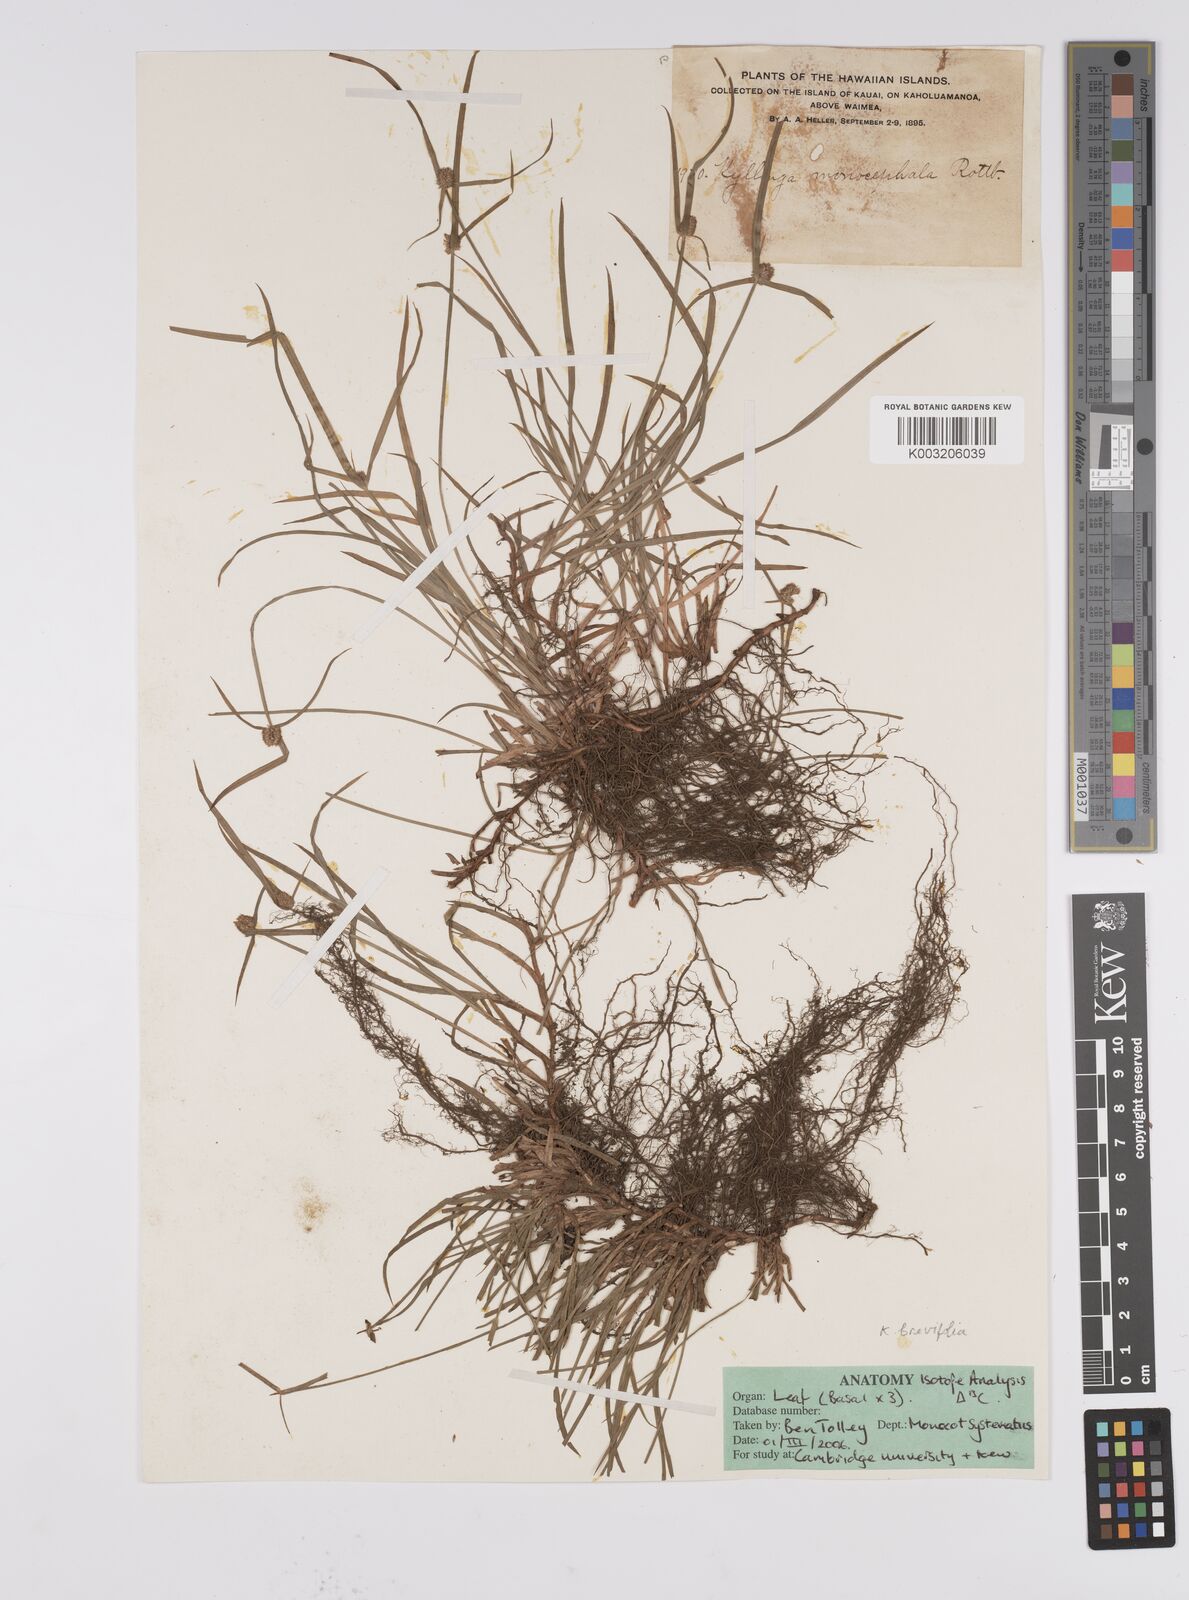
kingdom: Plantae
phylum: Tracheophyta
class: Liliopsida
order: Poales
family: Cyperaceae
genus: Cyperus
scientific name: Cyperus brevifolius
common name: Globe kyllinga
